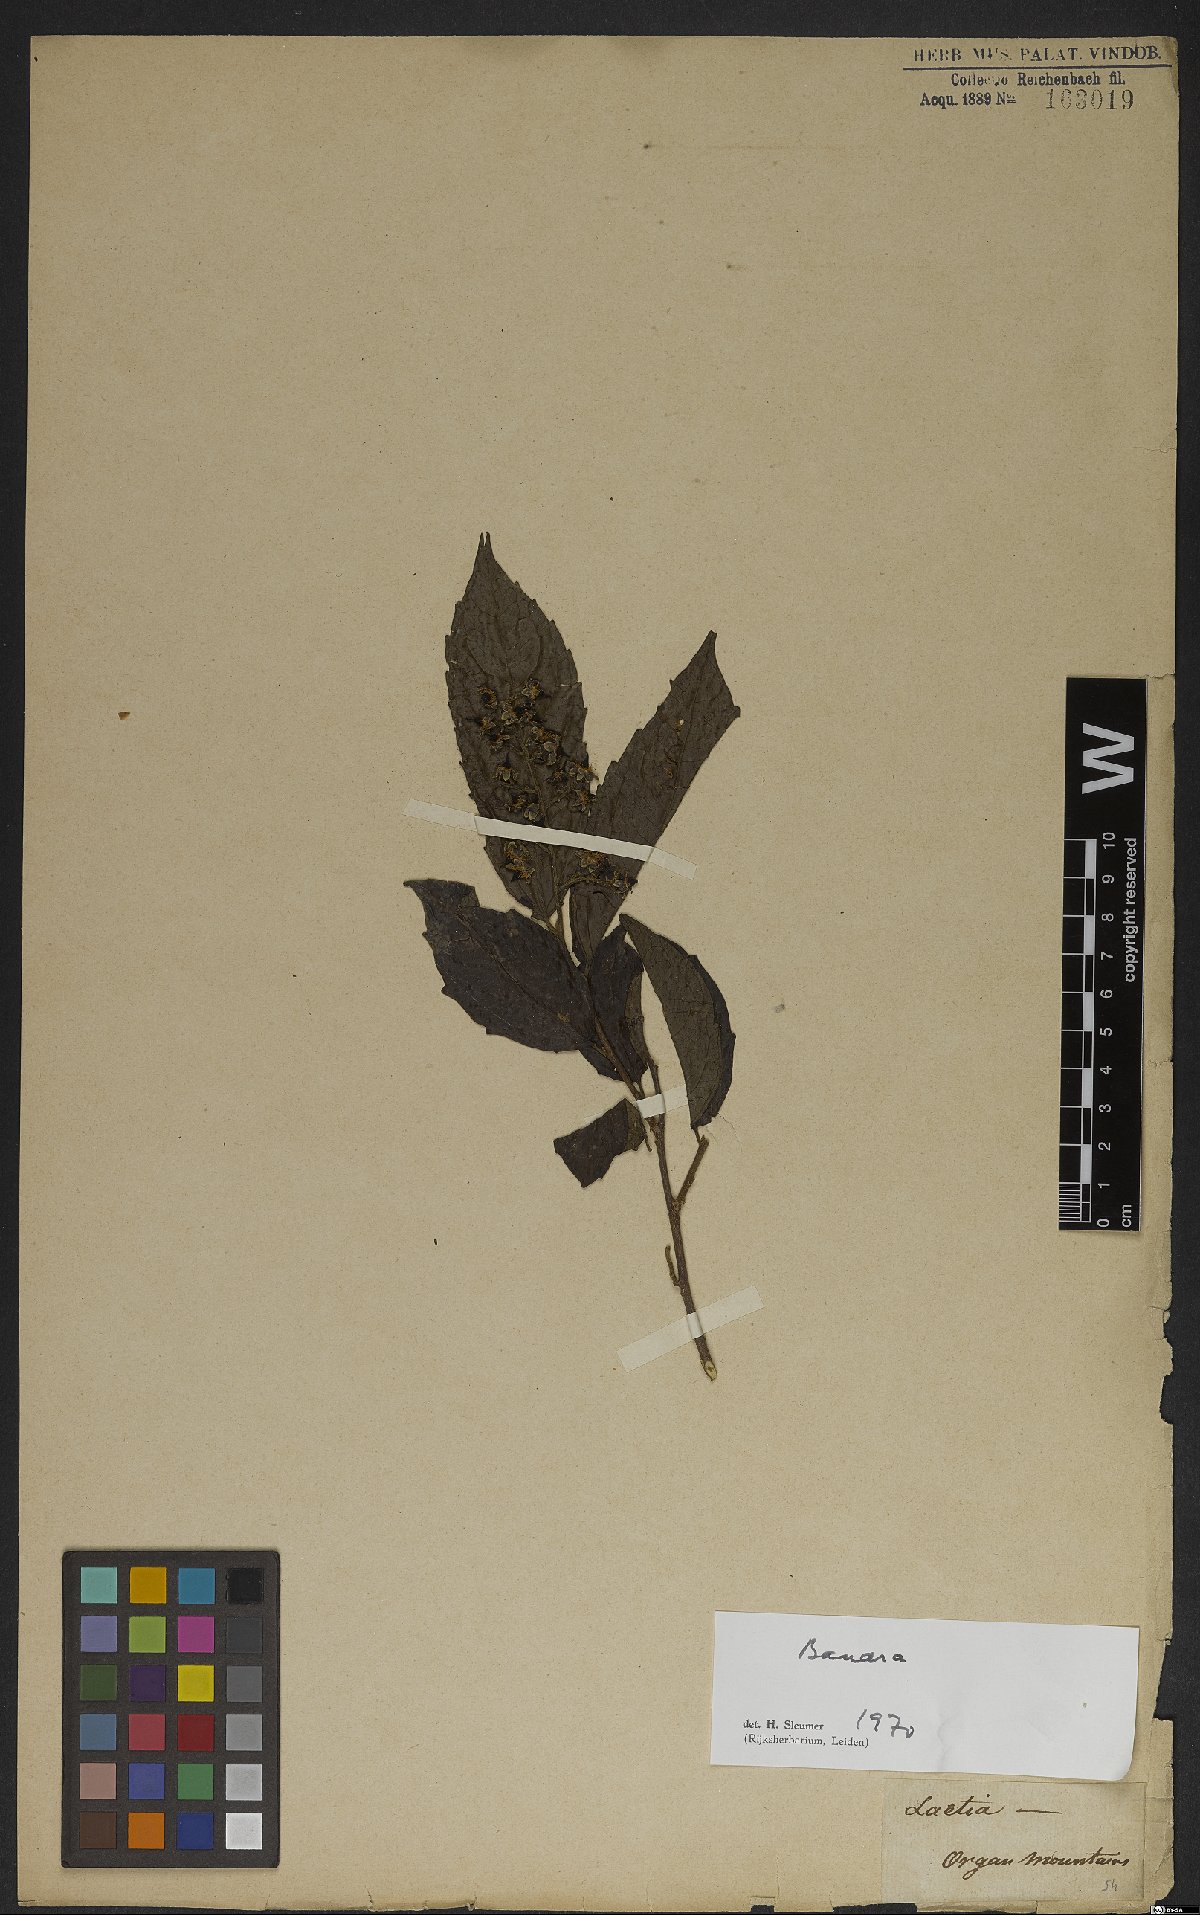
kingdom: Plantae
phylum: Tracheophyta
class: Magnoliopsida
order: Malpighiales
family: Salicaceae
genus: Banara
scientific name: Banara
